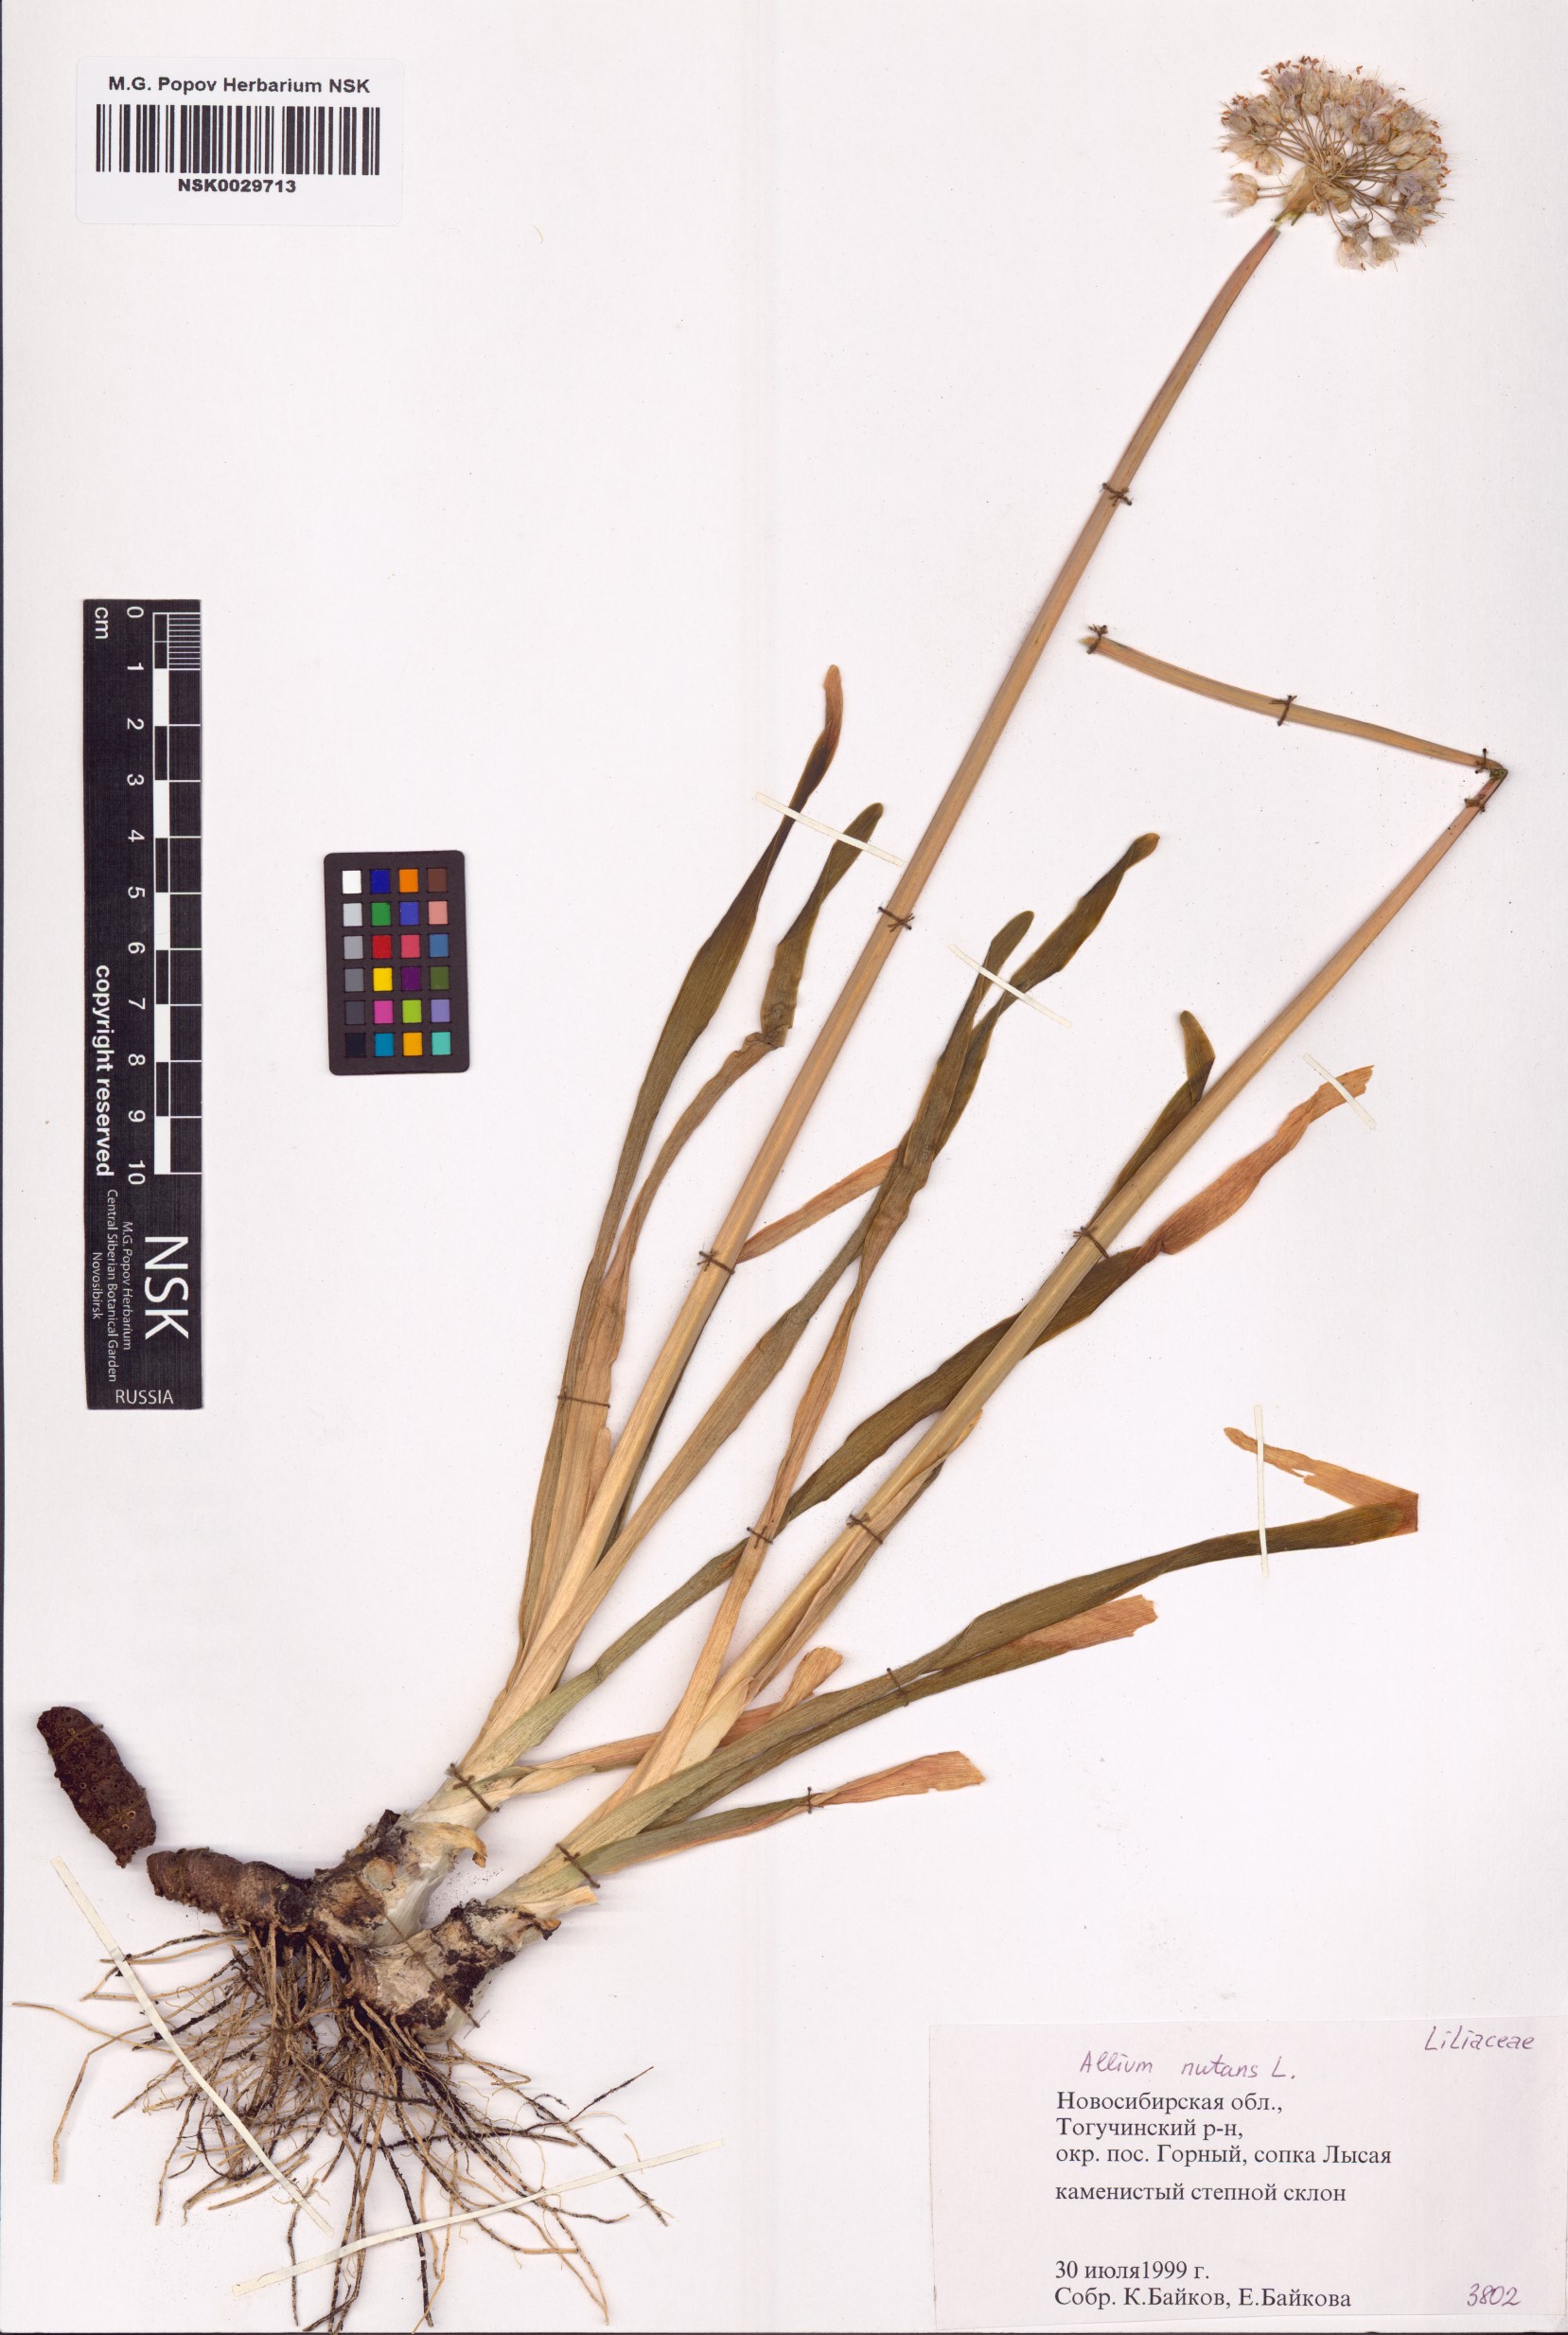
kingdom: Plantae
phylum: Tracheophyta
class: Liliopsida
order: Asparagales
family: Amaryllidaceae
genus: Allium
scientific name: Allium nutans
